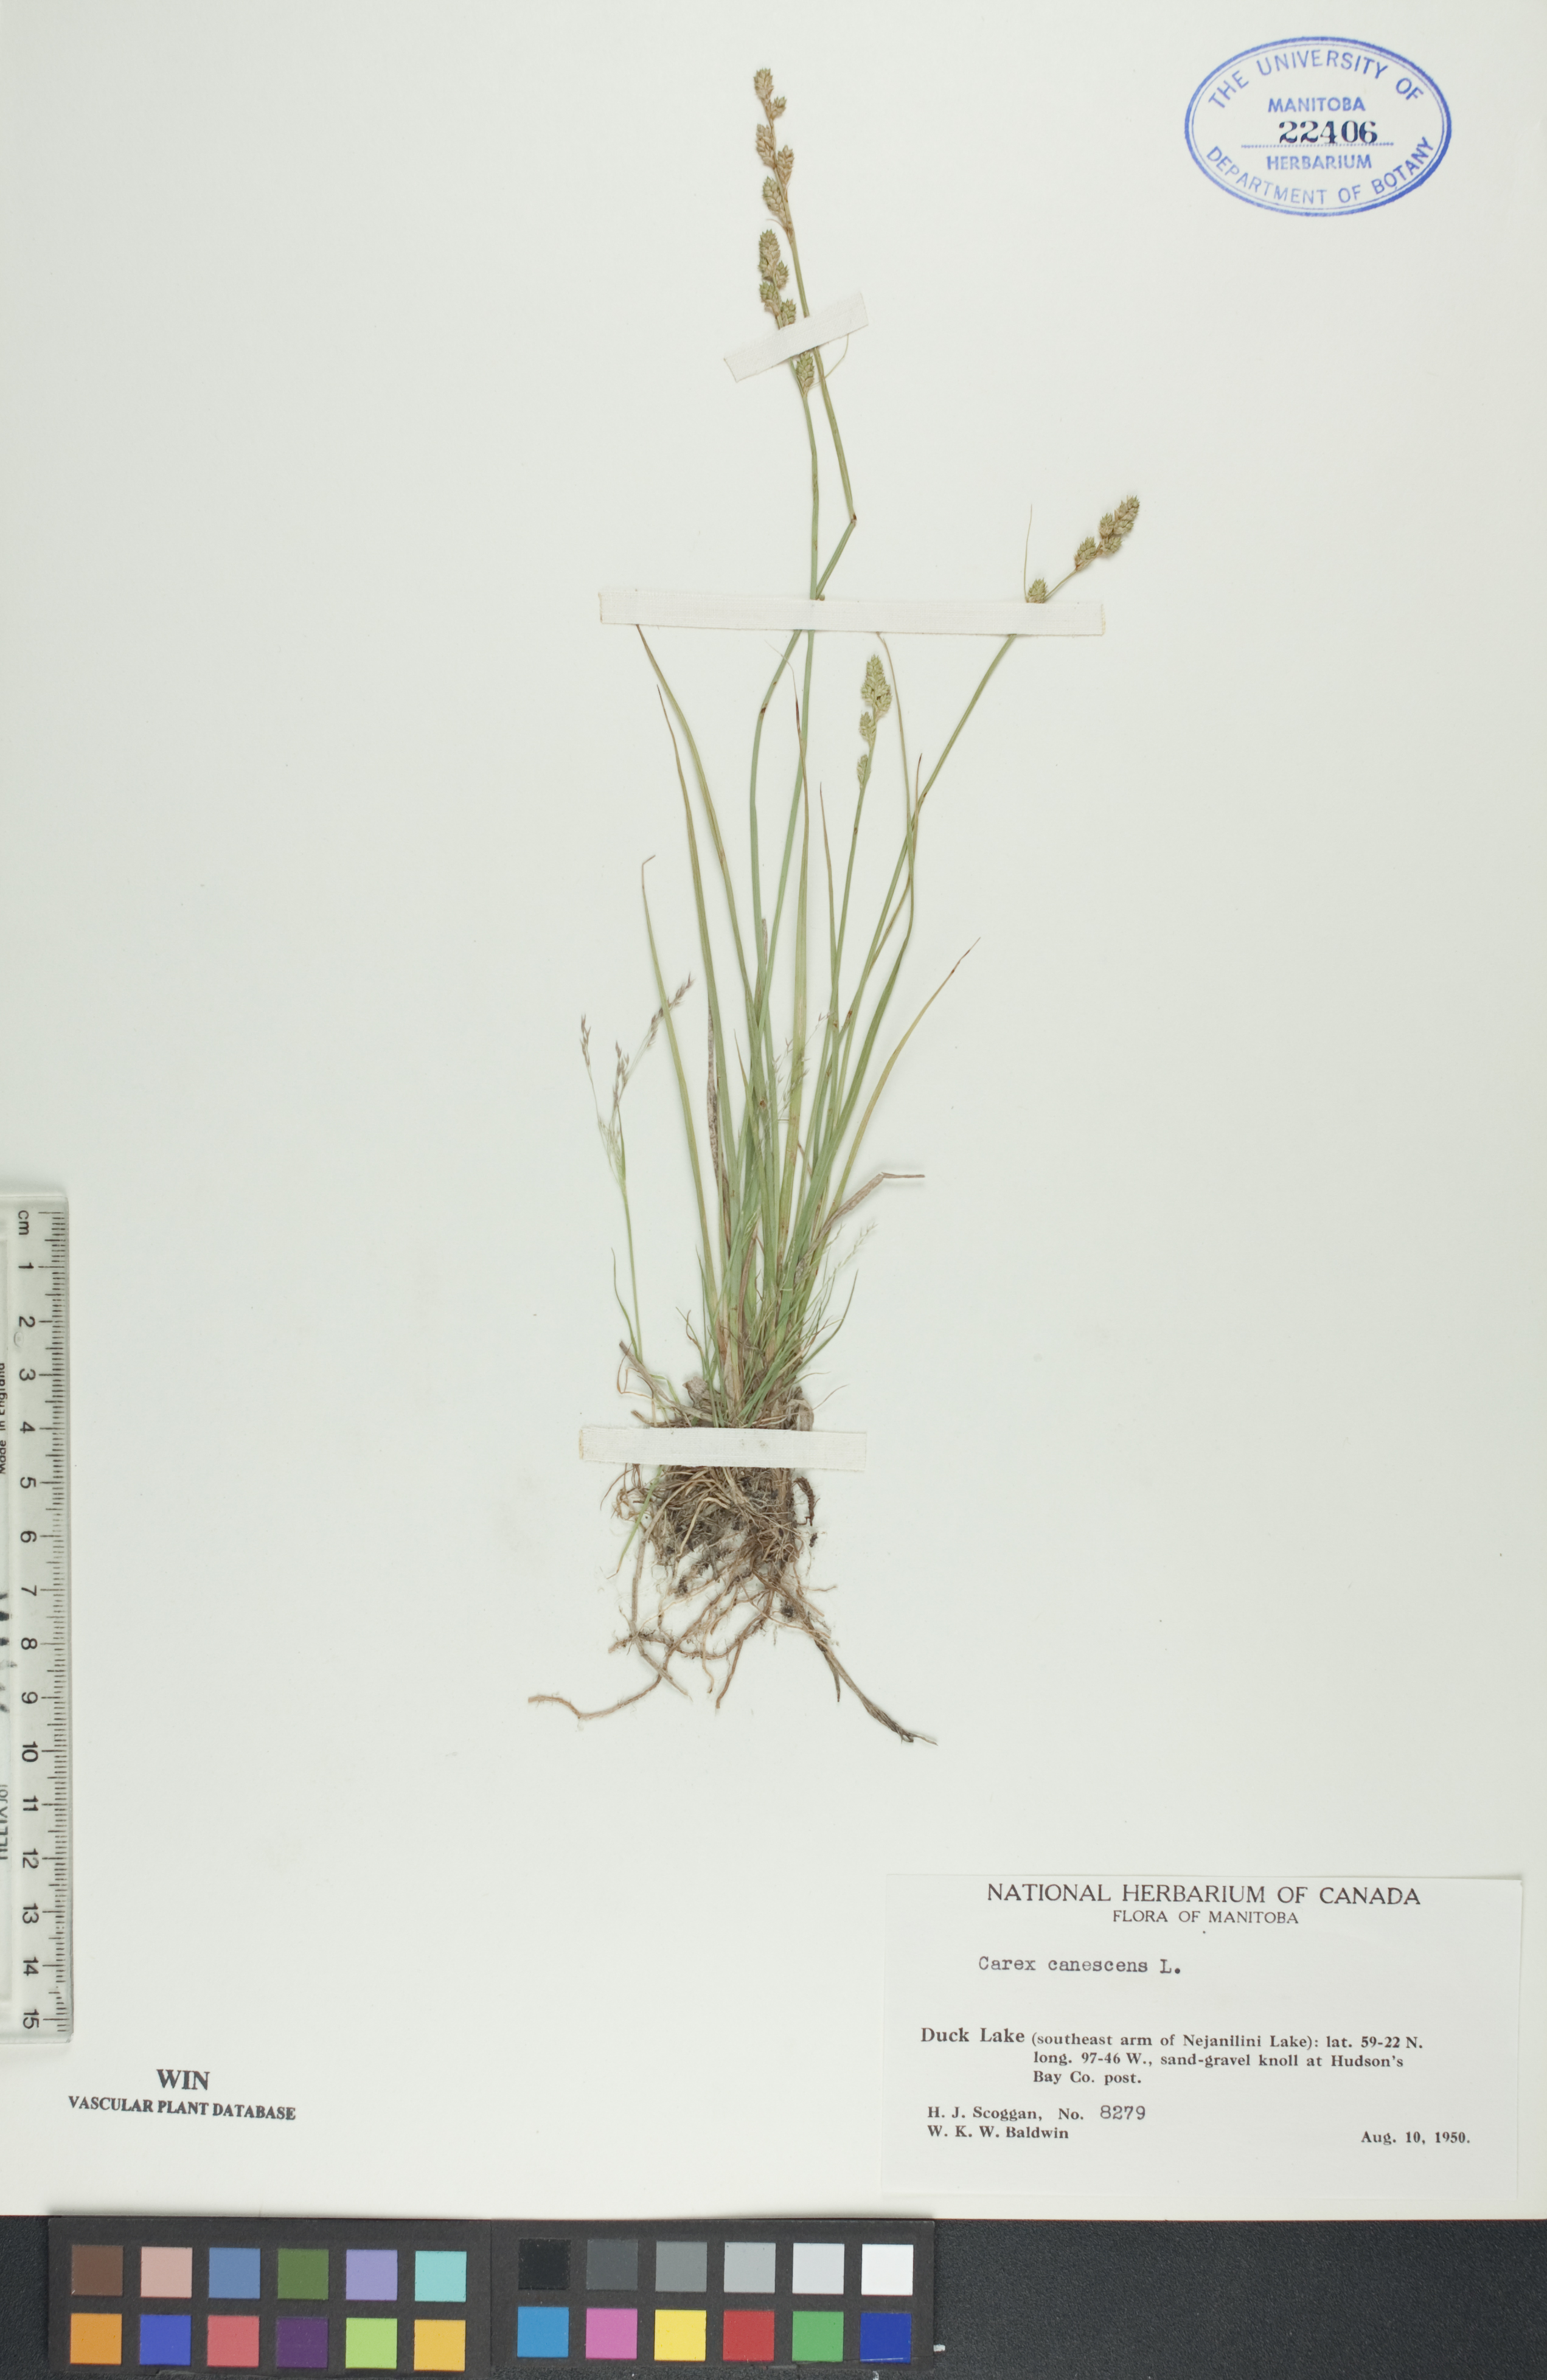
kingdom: Plantae
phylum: Tracheophyta
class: Liliopsida
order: Poales
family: Cyperaceae
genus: Carex
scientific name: Carex canescens
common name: White sedge
